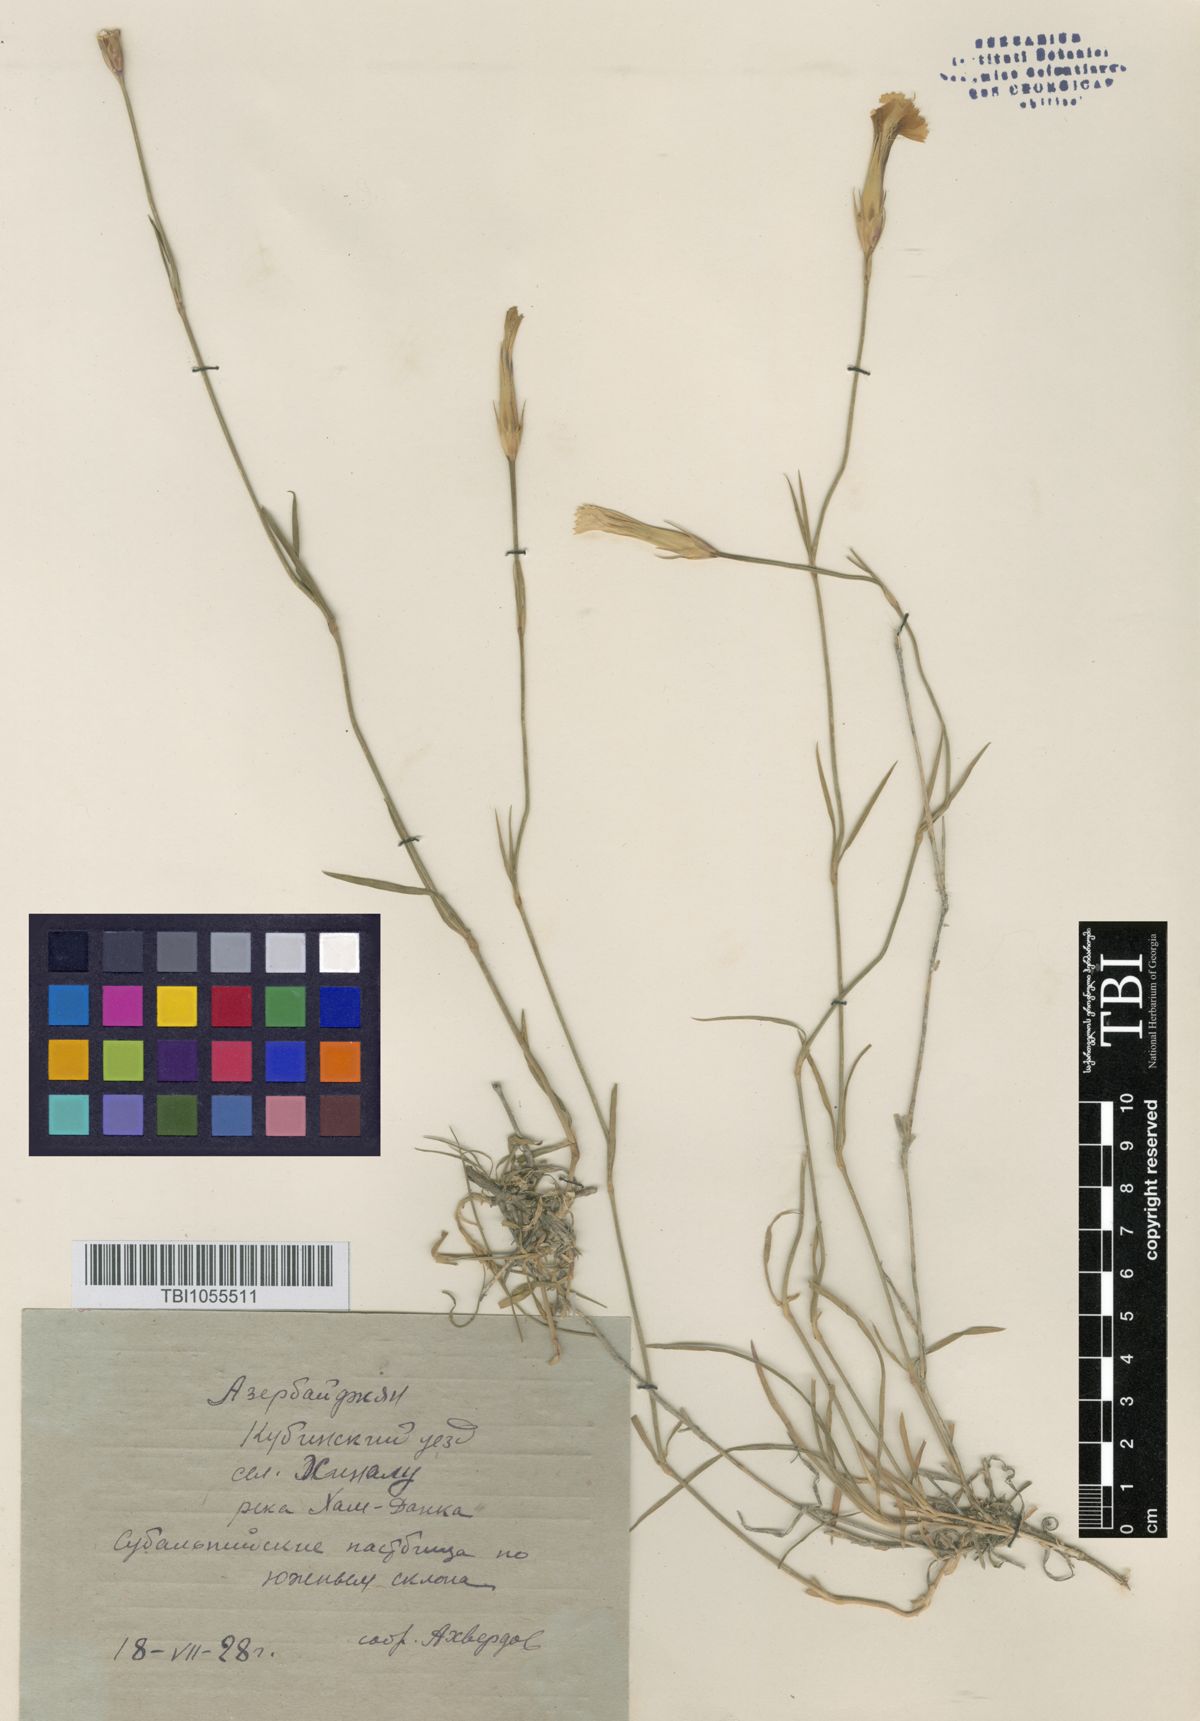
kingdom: Plantae
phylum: Tracheophyta
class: Magnoliopsida
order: Caryophyllales
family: Caryophyllaceae
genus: Dianthus
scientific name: Dianthus daghestanicus
